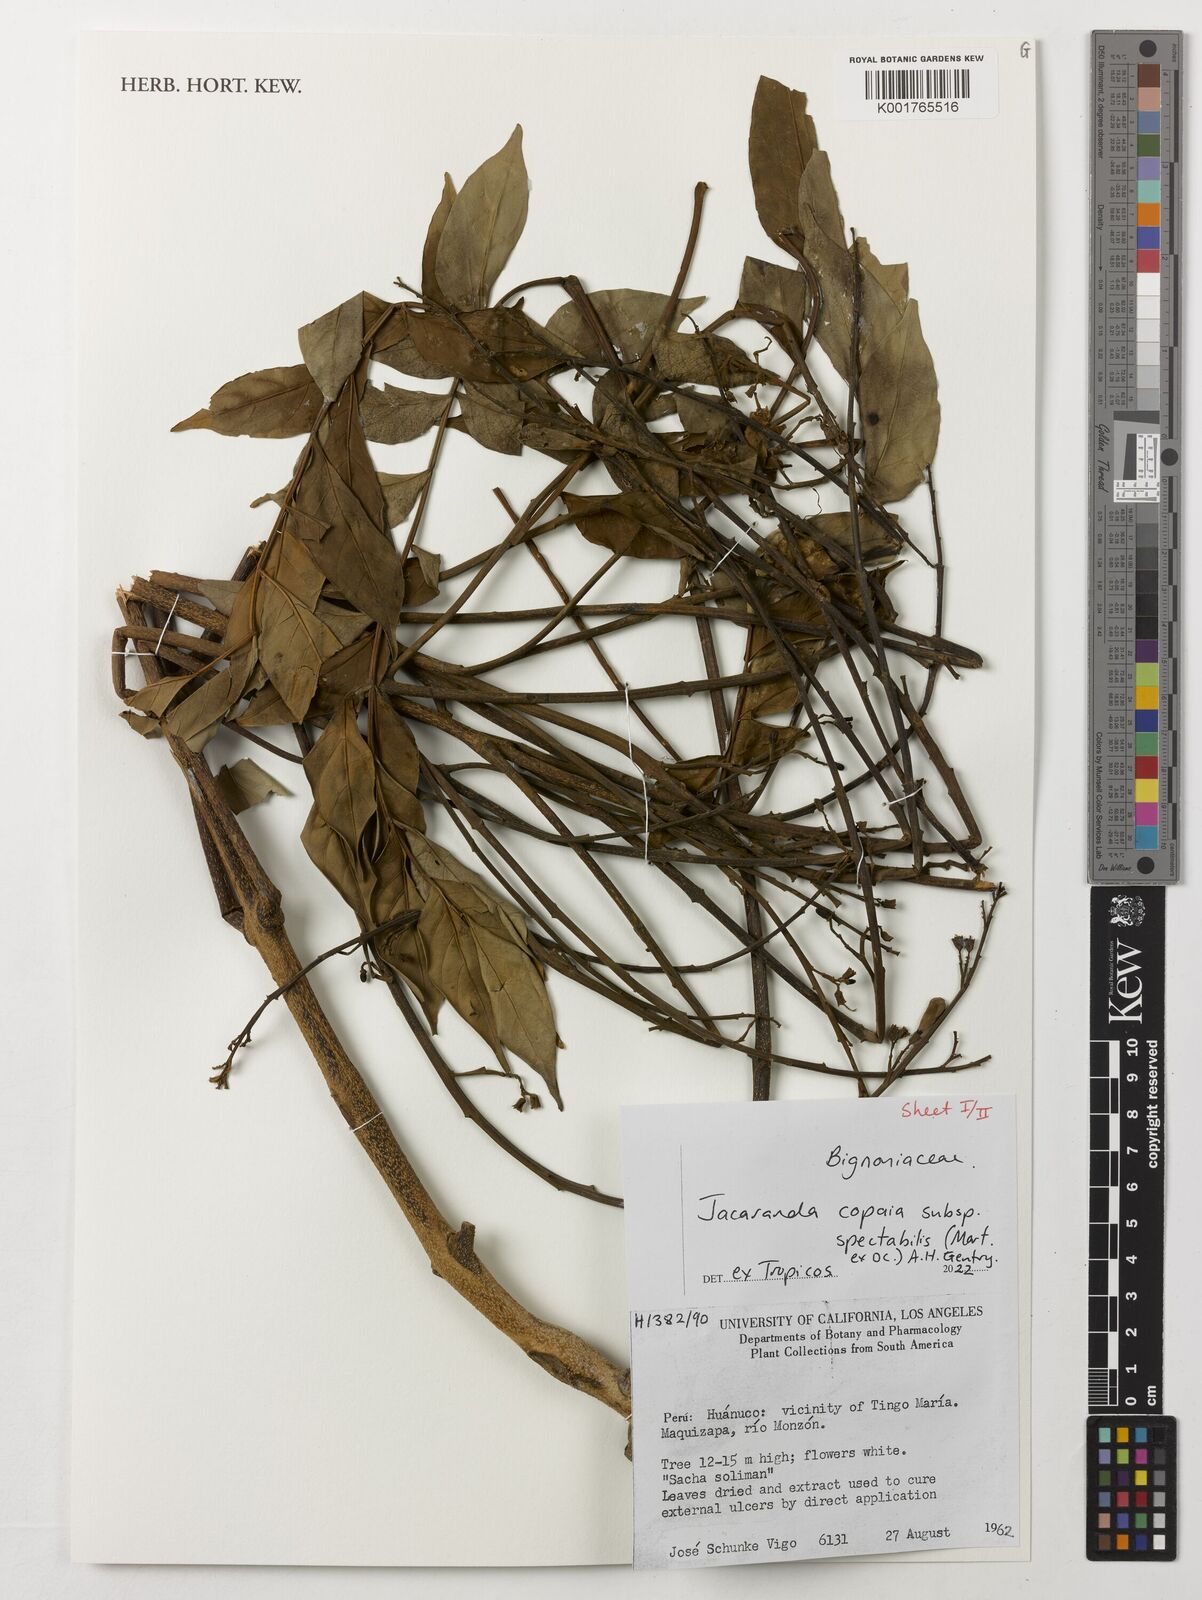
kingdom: Plantae
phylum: Tracheophyta
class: Magnoliopsida
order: Lamiales
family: Bignoniaceae
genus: Jacaranda
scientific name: Jacaranda copaia
